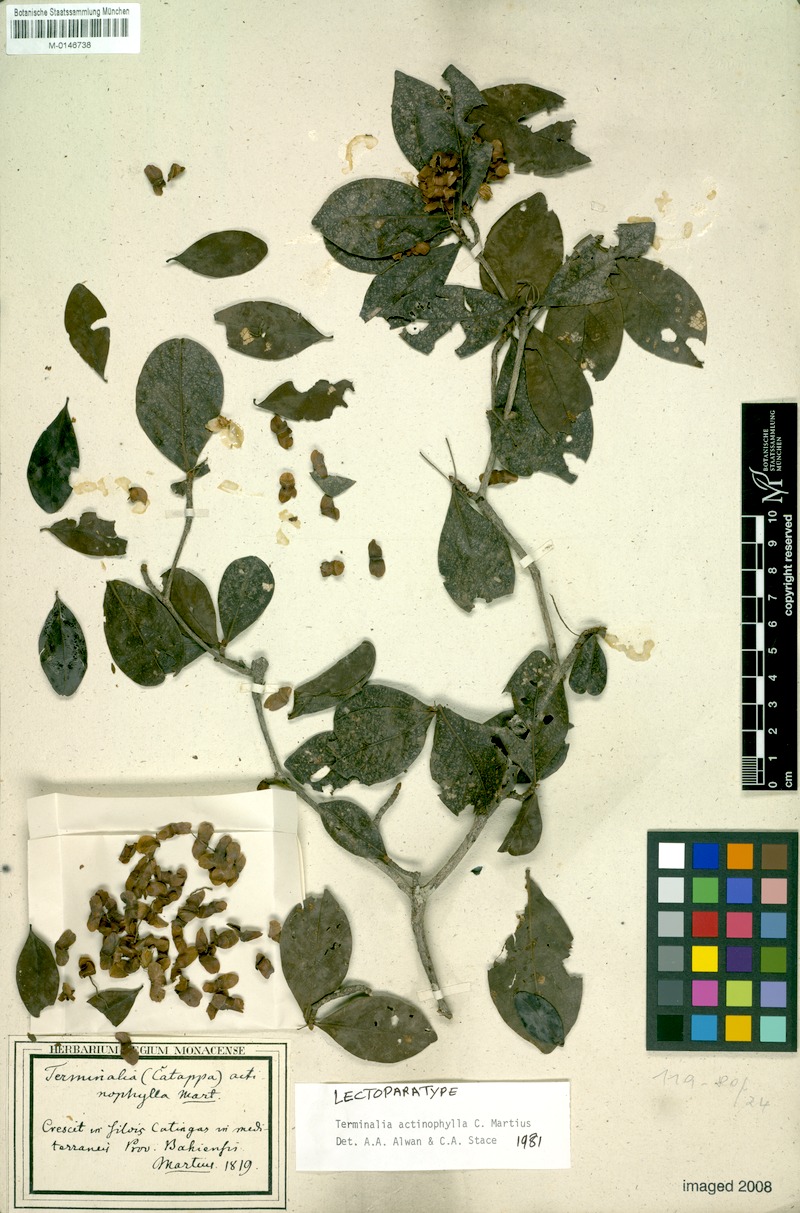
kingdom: Plantae
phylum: Tracheophyta
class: Magnoliopsida
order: Myrtales
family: Combretaceae
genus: Terminalia
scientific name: Terminalia actinophylla
